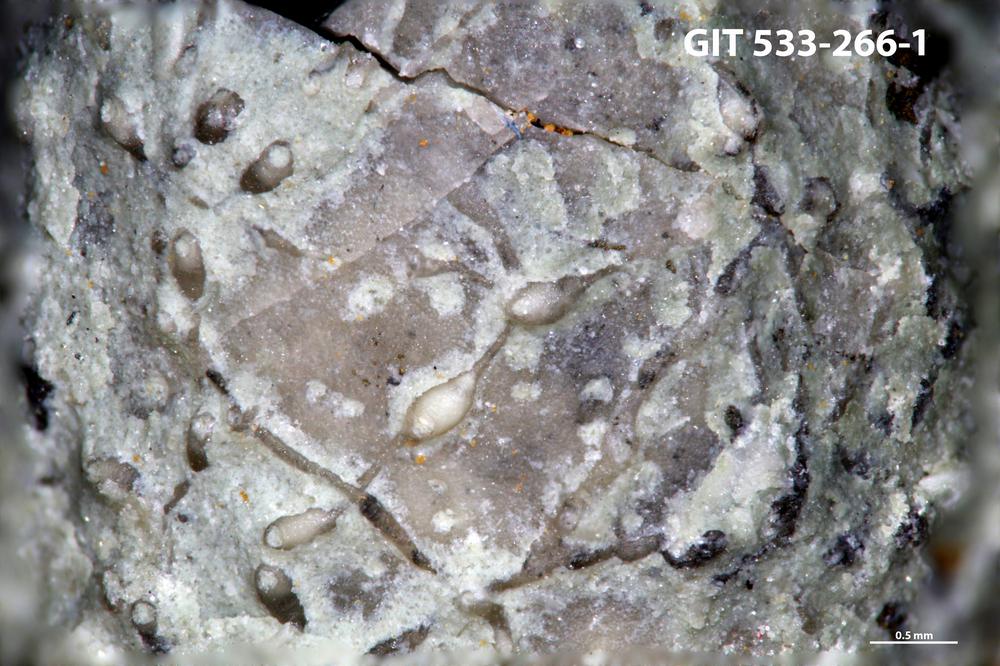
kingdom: Animalia
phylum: Bryozoa
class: Stenolaemata
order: Cyclostomatida
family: Corynotrypidae
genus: Corynotrypa
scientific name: Corynotrypa
